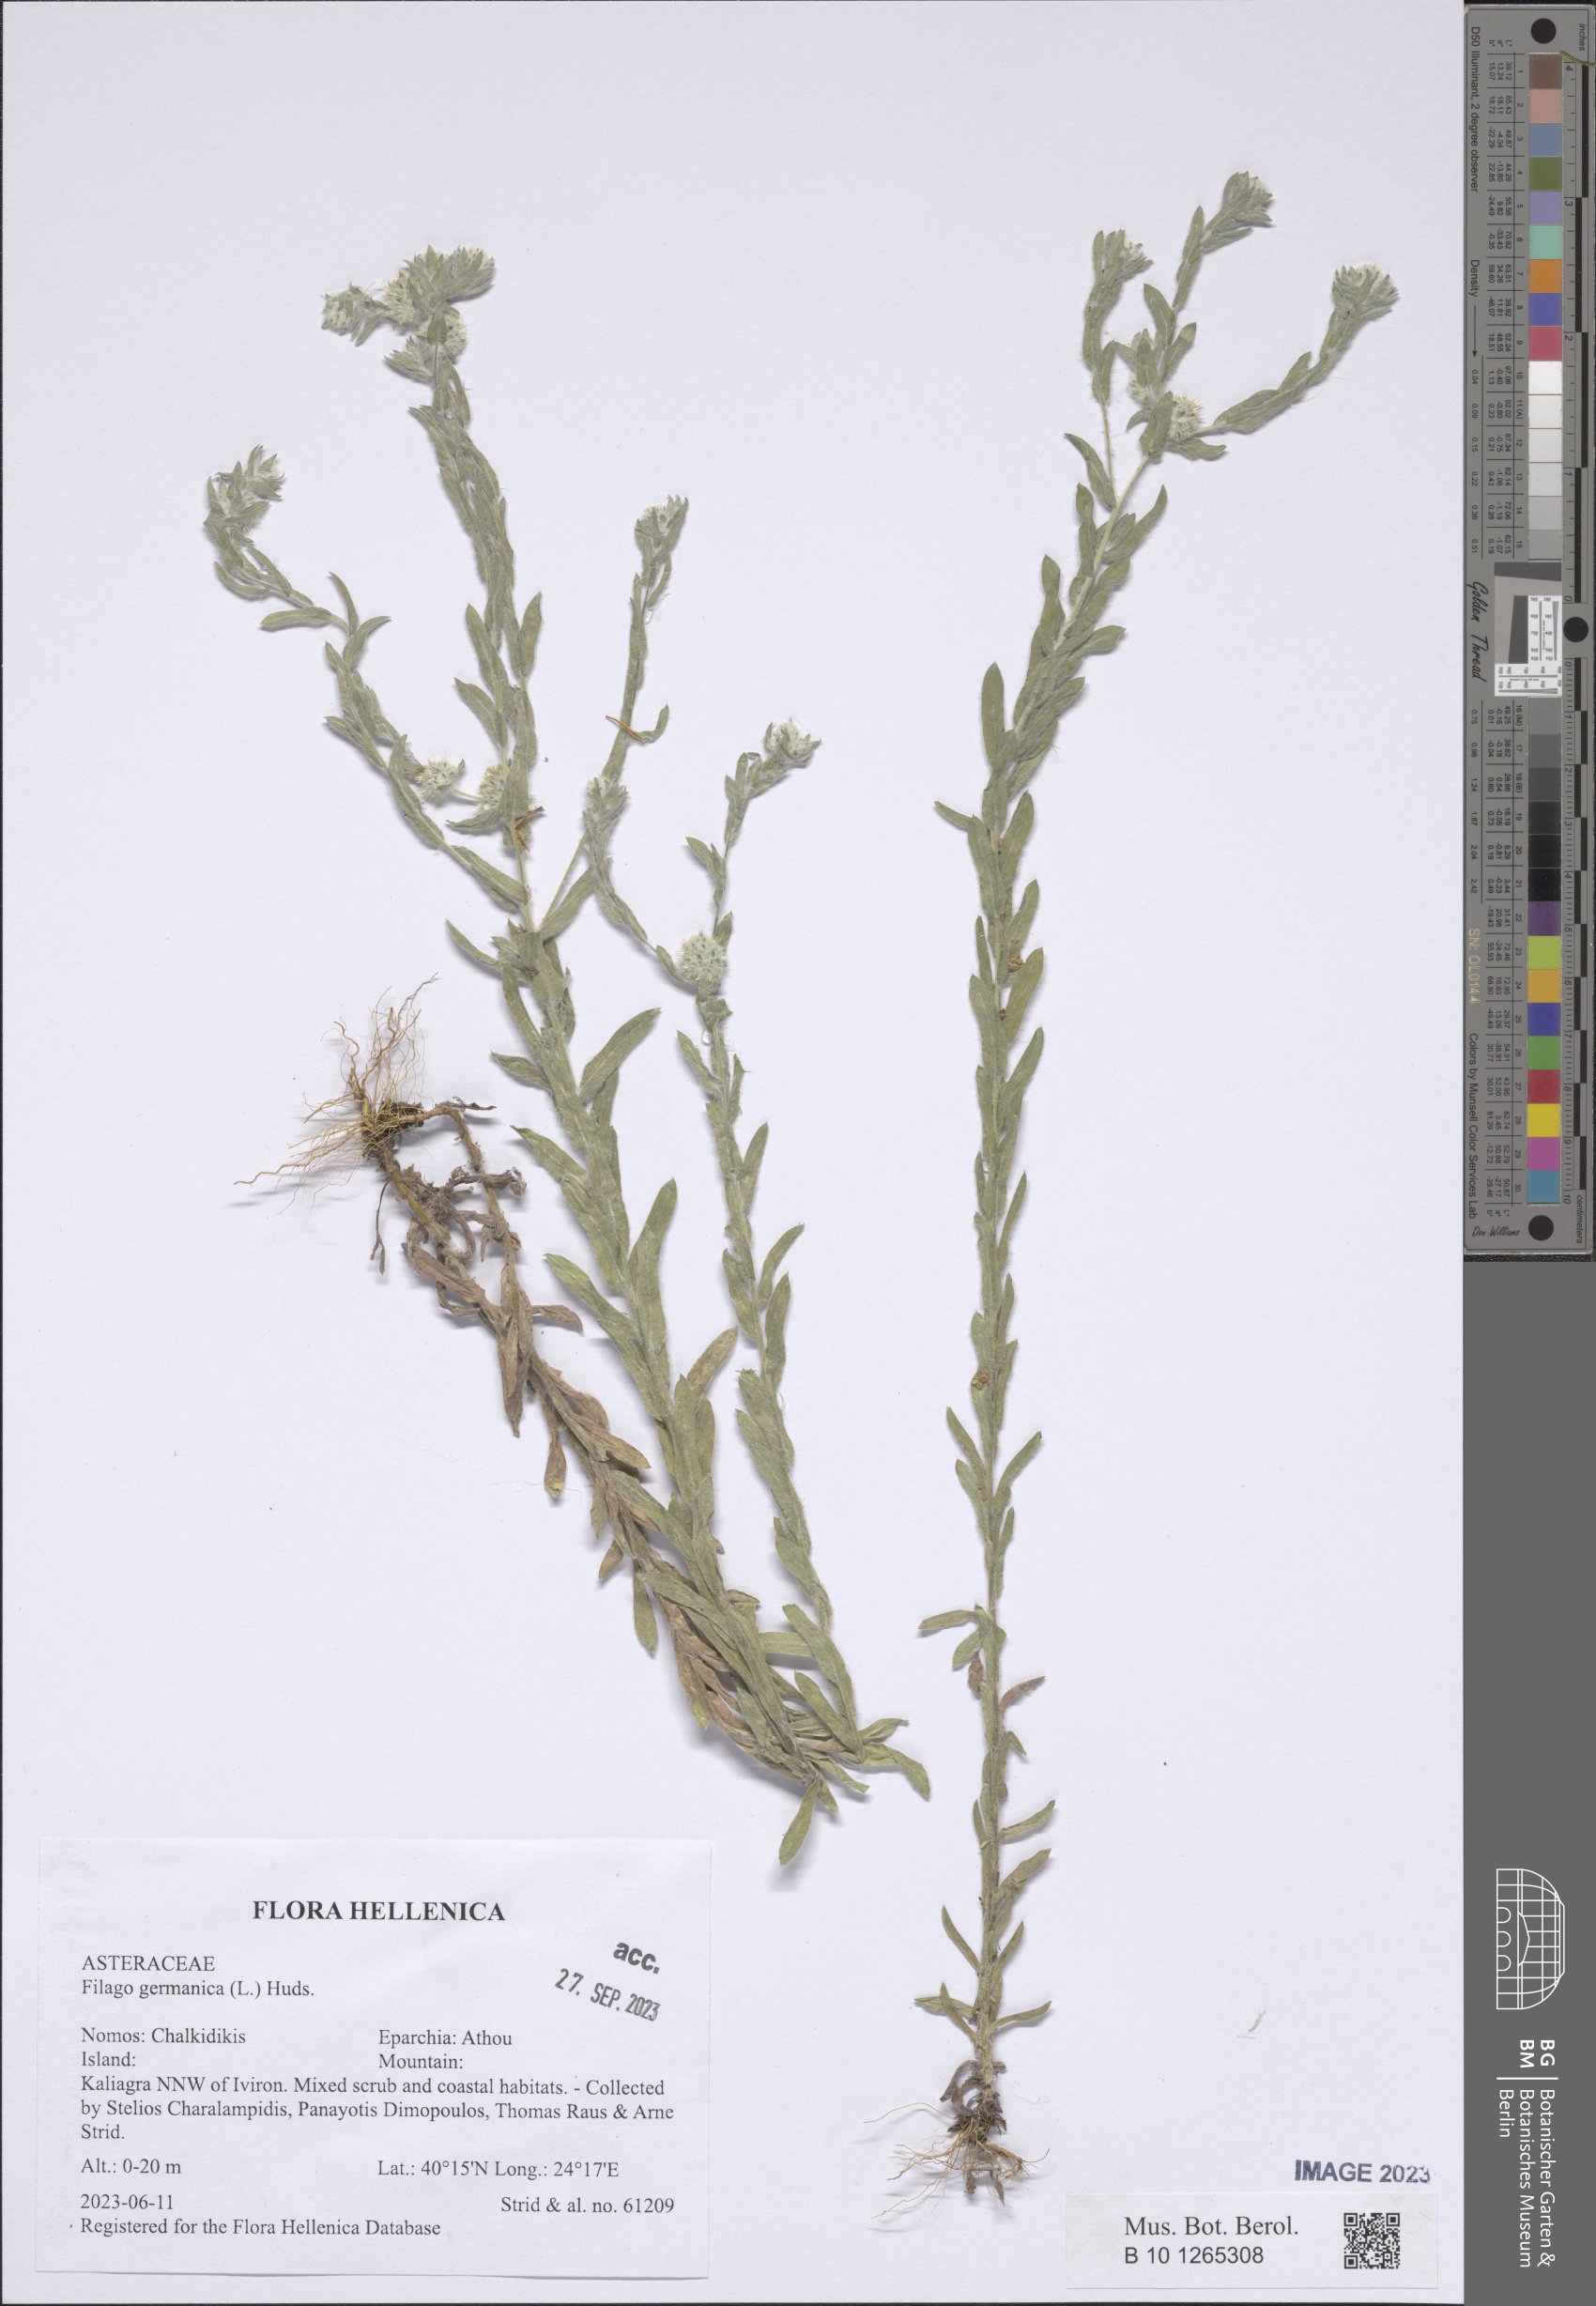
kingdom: Plantae
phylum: Tracheophyta
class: Magnoliopsida
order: Asterales
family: Asteraceae
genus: Filago
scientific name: Filago germanica
